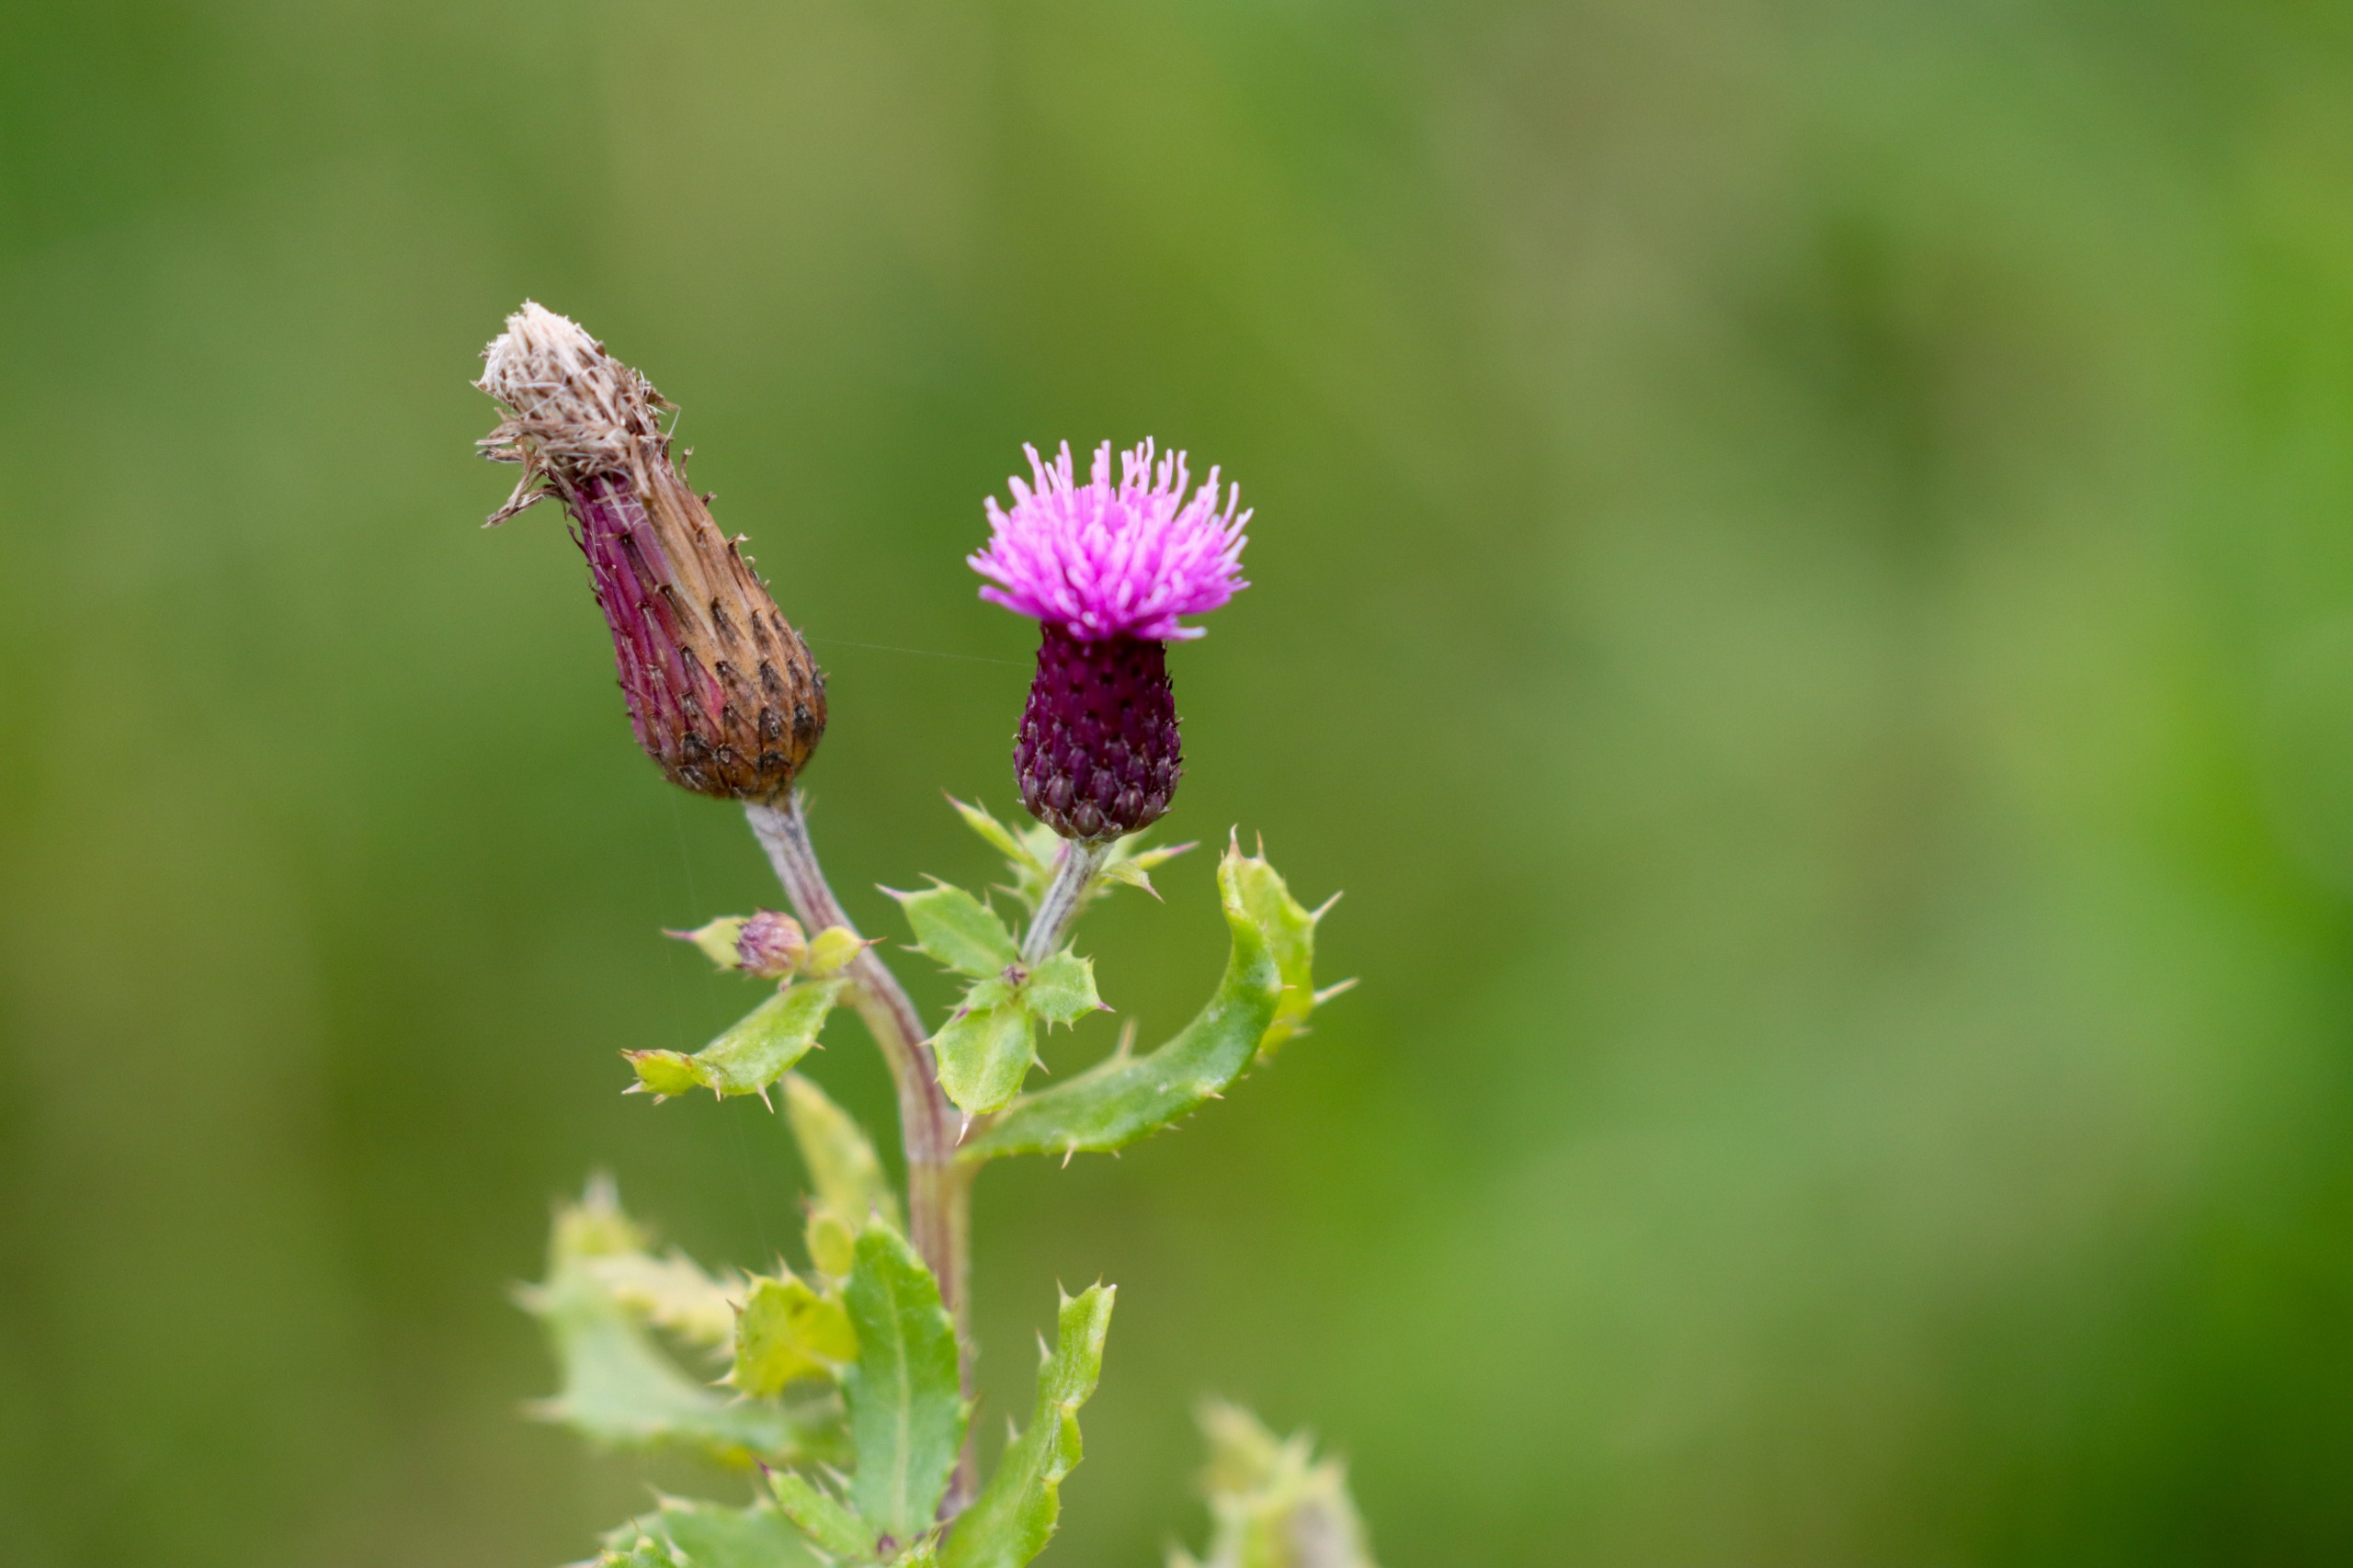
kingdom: Plantae
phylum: Tracheophyta
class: Magnoliopsida
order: Asterales
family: Asteraceae
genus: Cirsium
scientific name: Cirsium arvense
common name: Ager-tidsel
